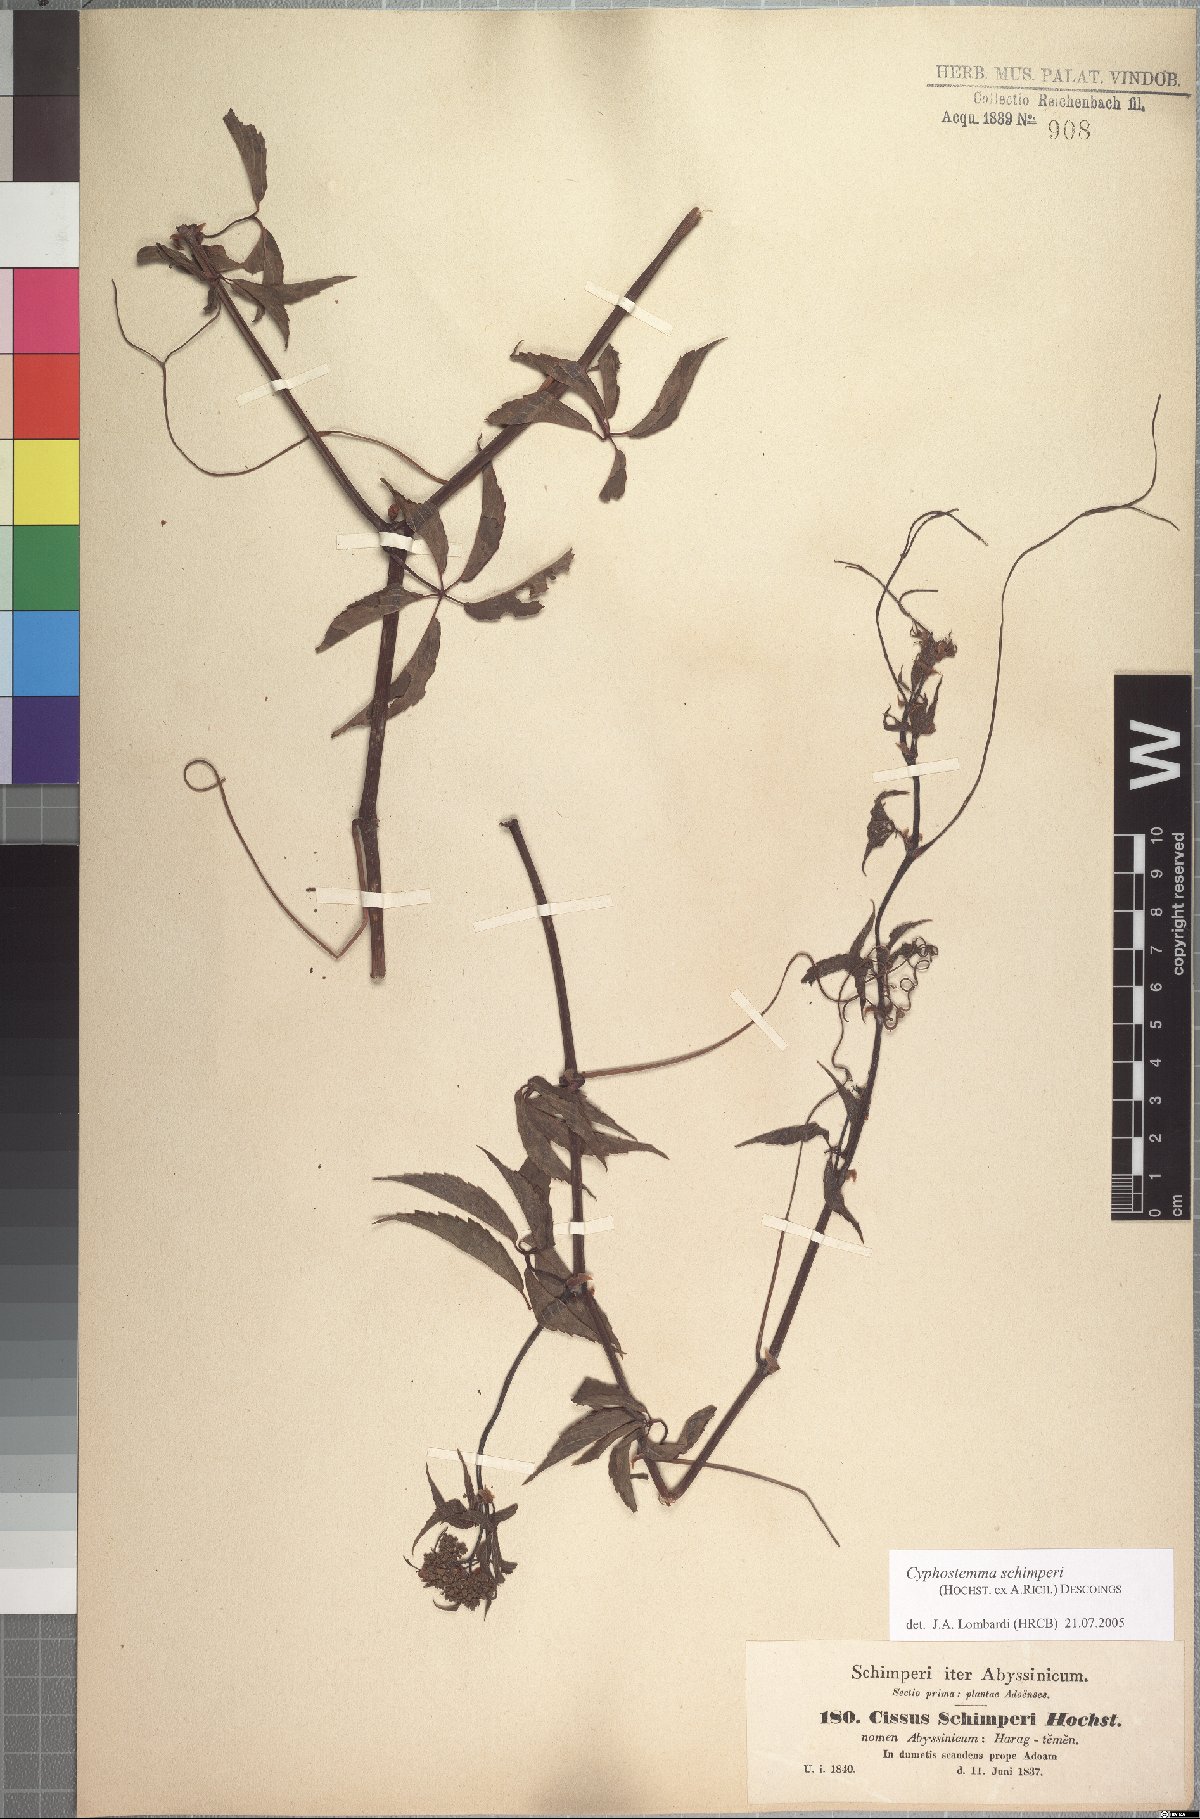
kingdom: Plantae
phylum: Tracheophyta
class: Magnoliopsida
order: Vitales
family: Vitaceae
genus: Cyphostemma
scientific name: Cyphostemma oxyphyllum
